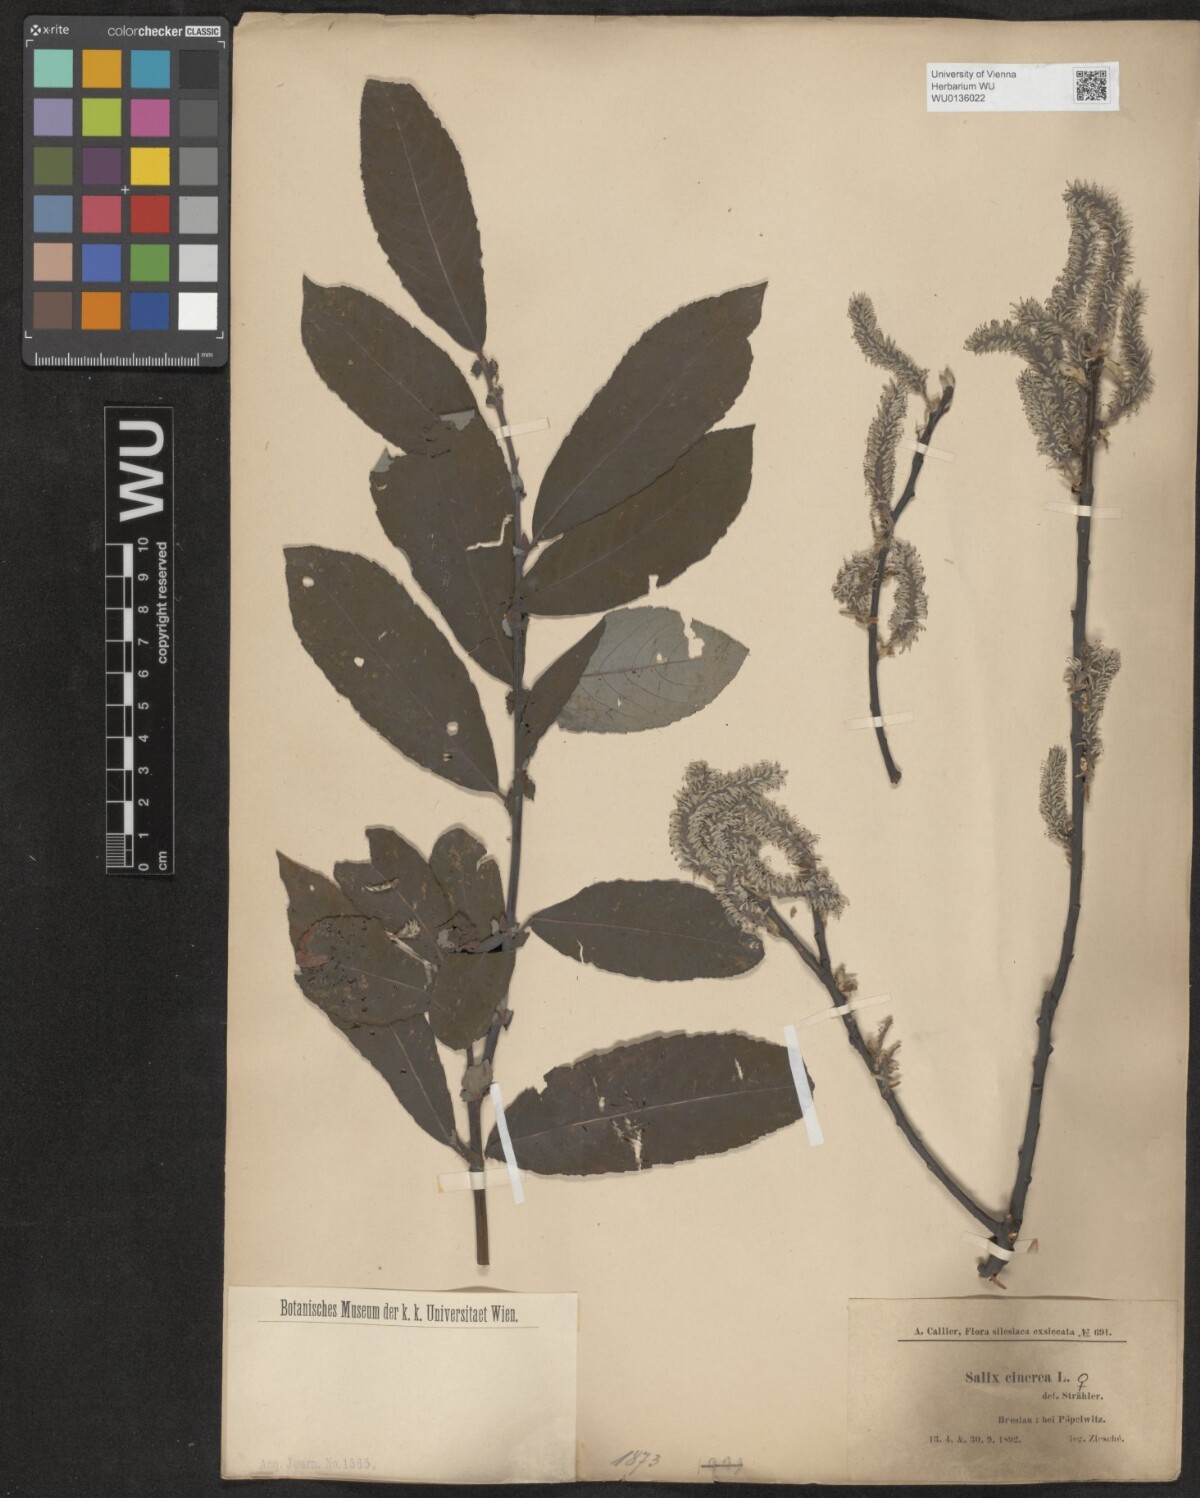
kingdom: Plantae
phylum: Tracheophyta
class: Magnoliopsida
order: Malpighiales
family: Salicaceae
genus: Salix
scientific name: Salix cinerea
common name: Common sallow
